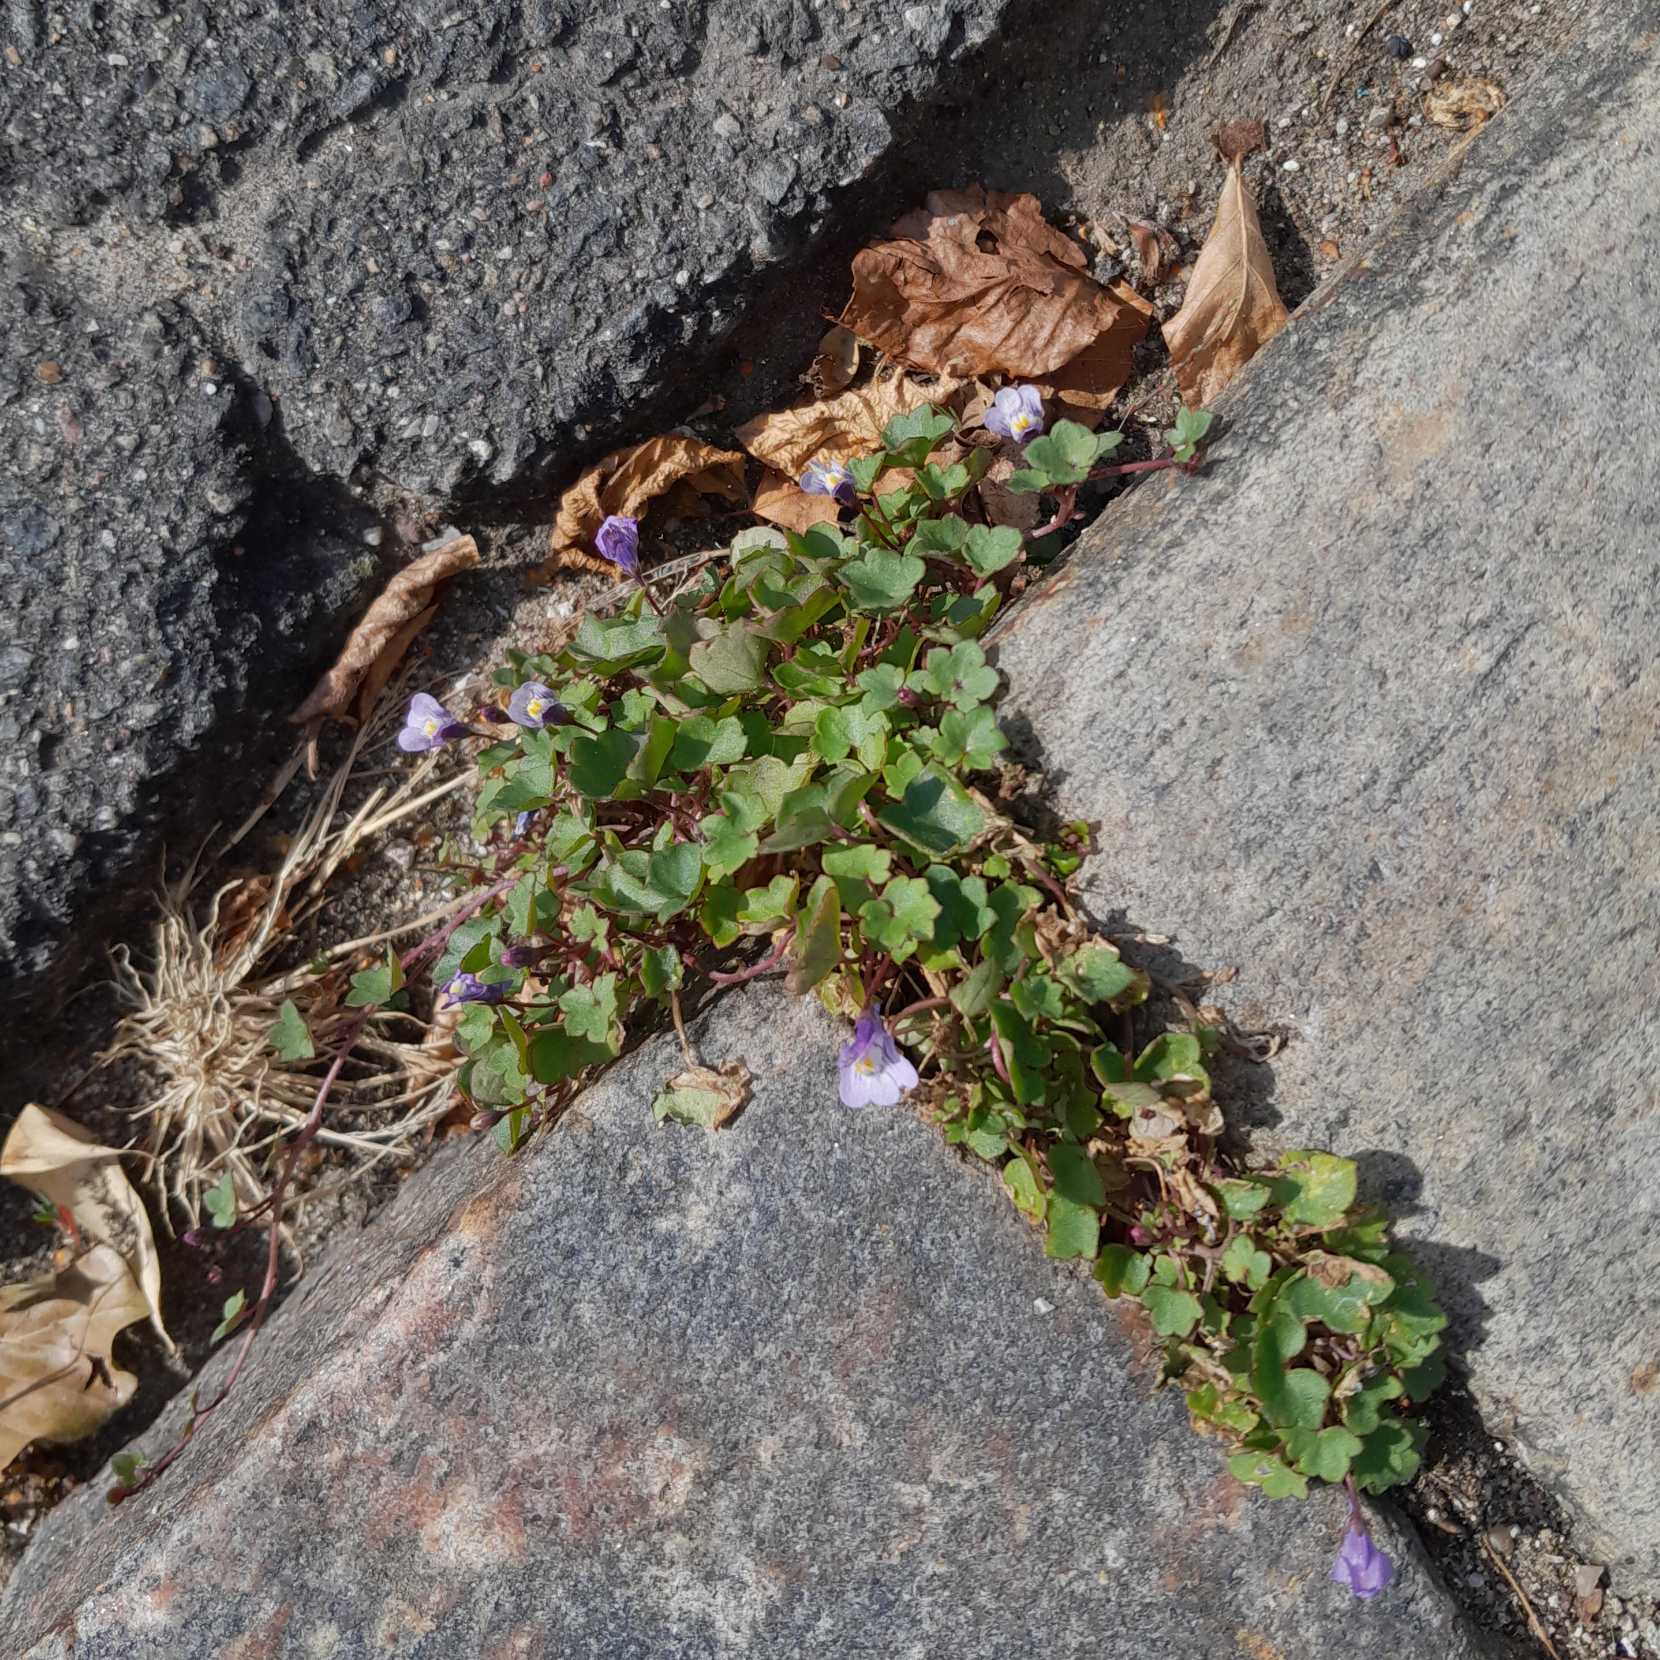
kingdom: Plantae
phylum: Tracheophyta
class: Magnoliopsida
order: Lamiales
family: Plantaginaceae
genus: Cymbalaria
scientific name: Cymbalaria muralis
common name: Vedbend-torskemund
